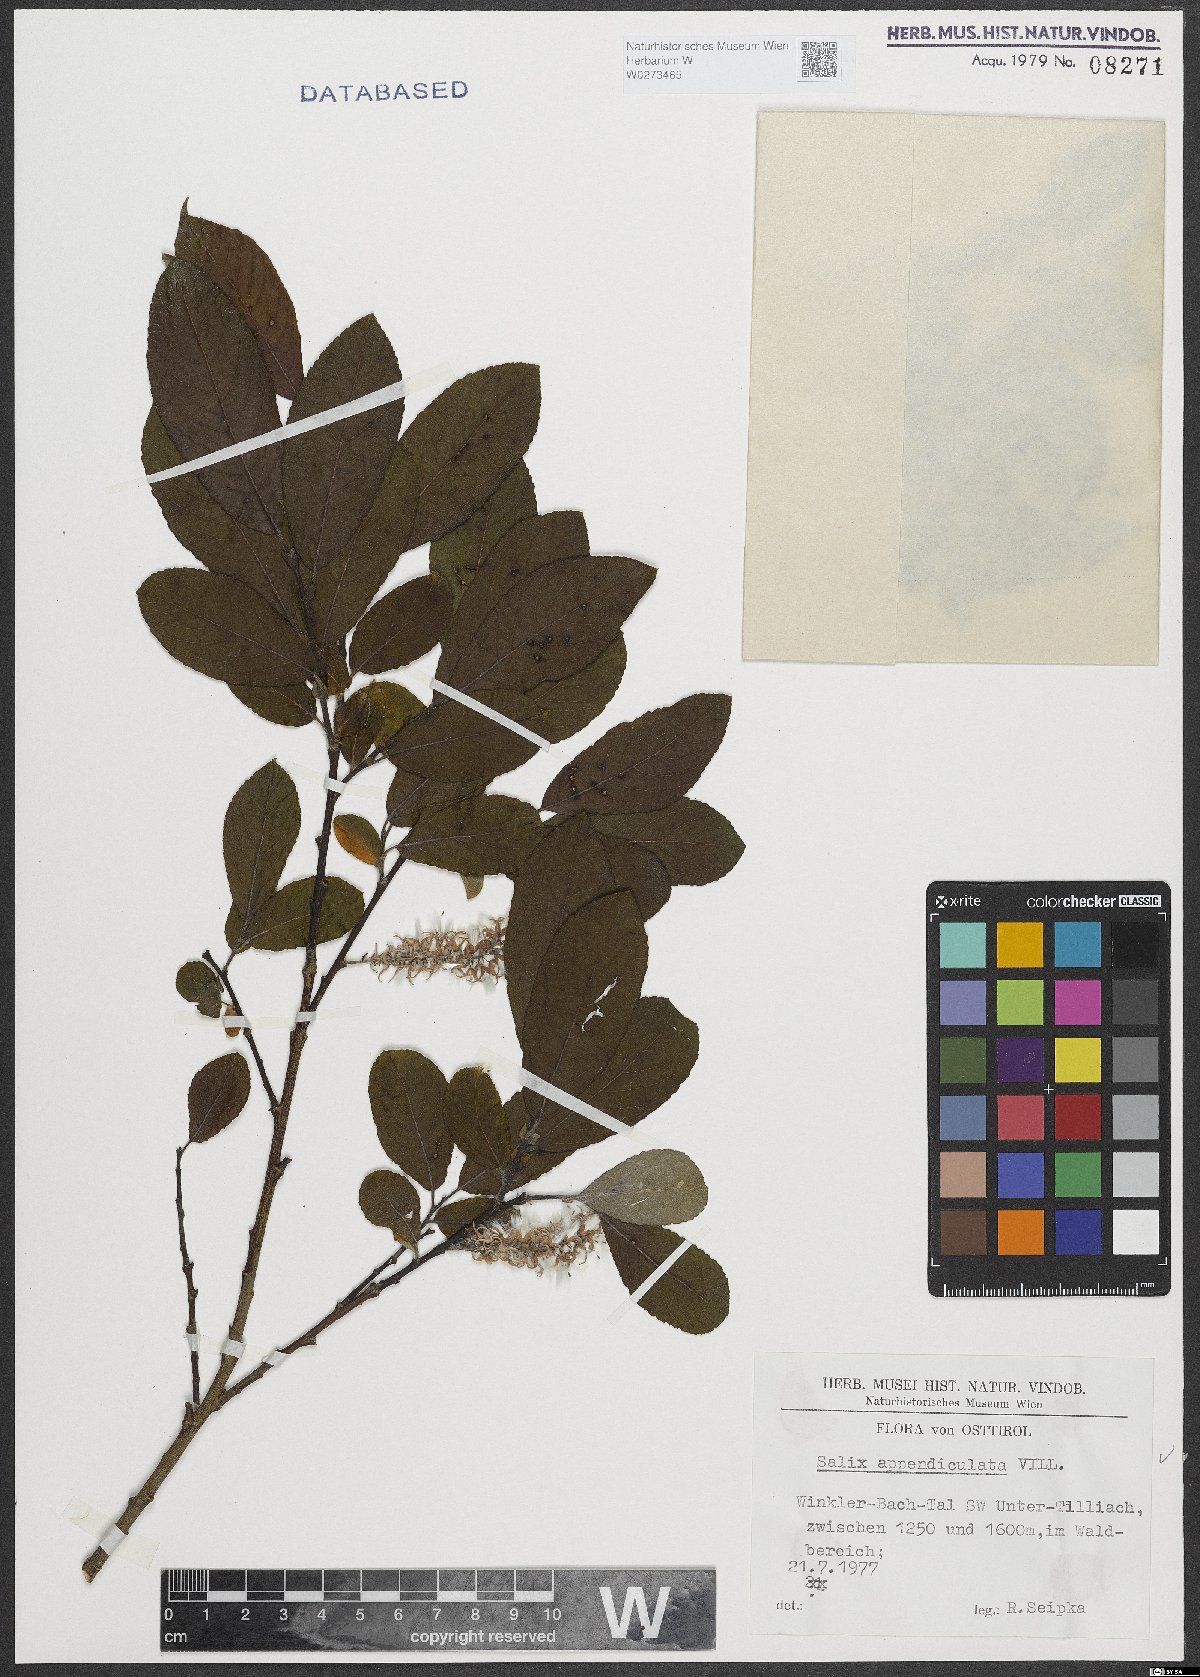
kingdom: Plantae
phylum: Tracheophyta
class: Magnoliopsida
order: Malpighiales
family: Salicaceae
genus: Salix
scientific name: Salix appendiculata
